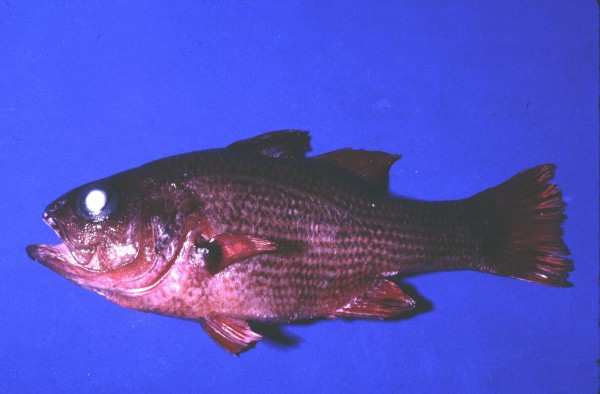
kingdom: Animalia
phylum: Chordata
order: Perciformes
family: Apogonidae
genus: Lepidamia
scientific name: Lepidamia natalensis
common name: Smallscale cardinal
